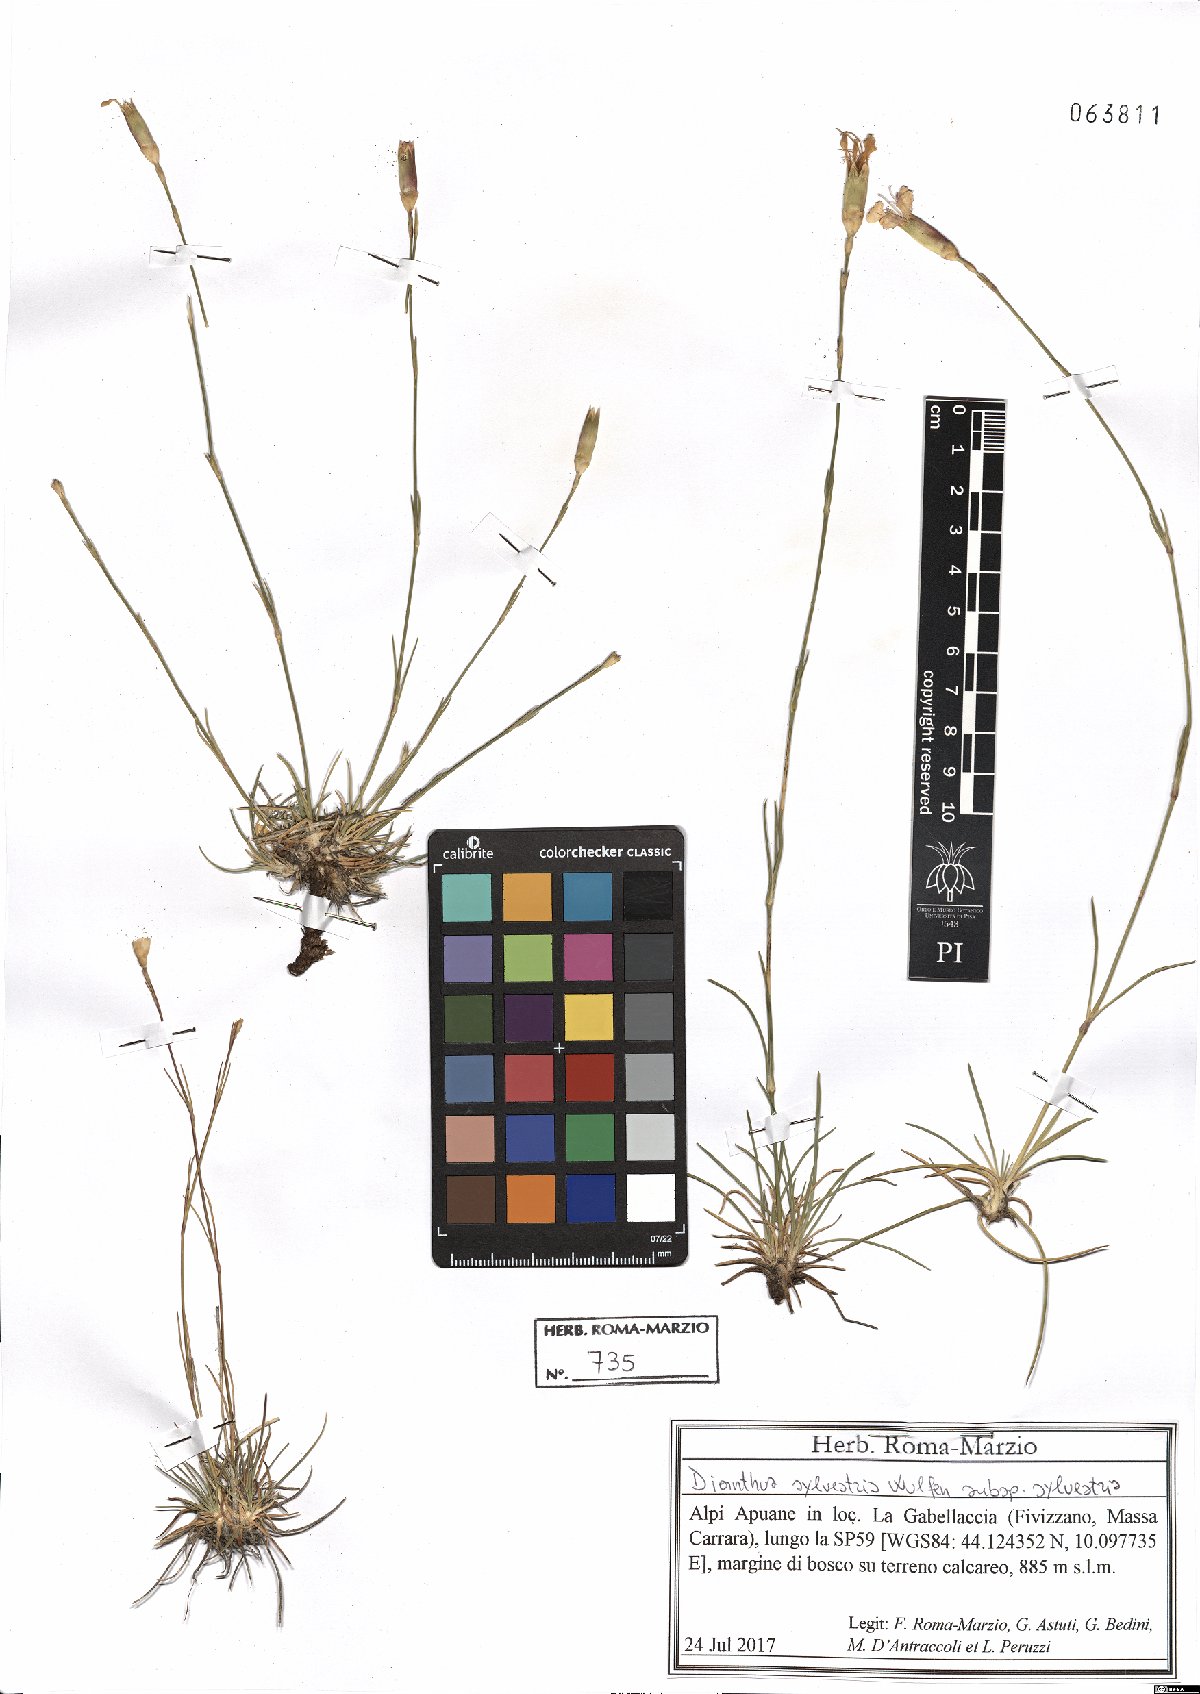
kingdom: Plantae
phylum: Tracheophyta
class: Magnoliopsida
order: Caryophyllales
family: Caryophyllaceae
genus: Dianthus
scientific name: Dianthus sylvestris
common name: Wood pink
